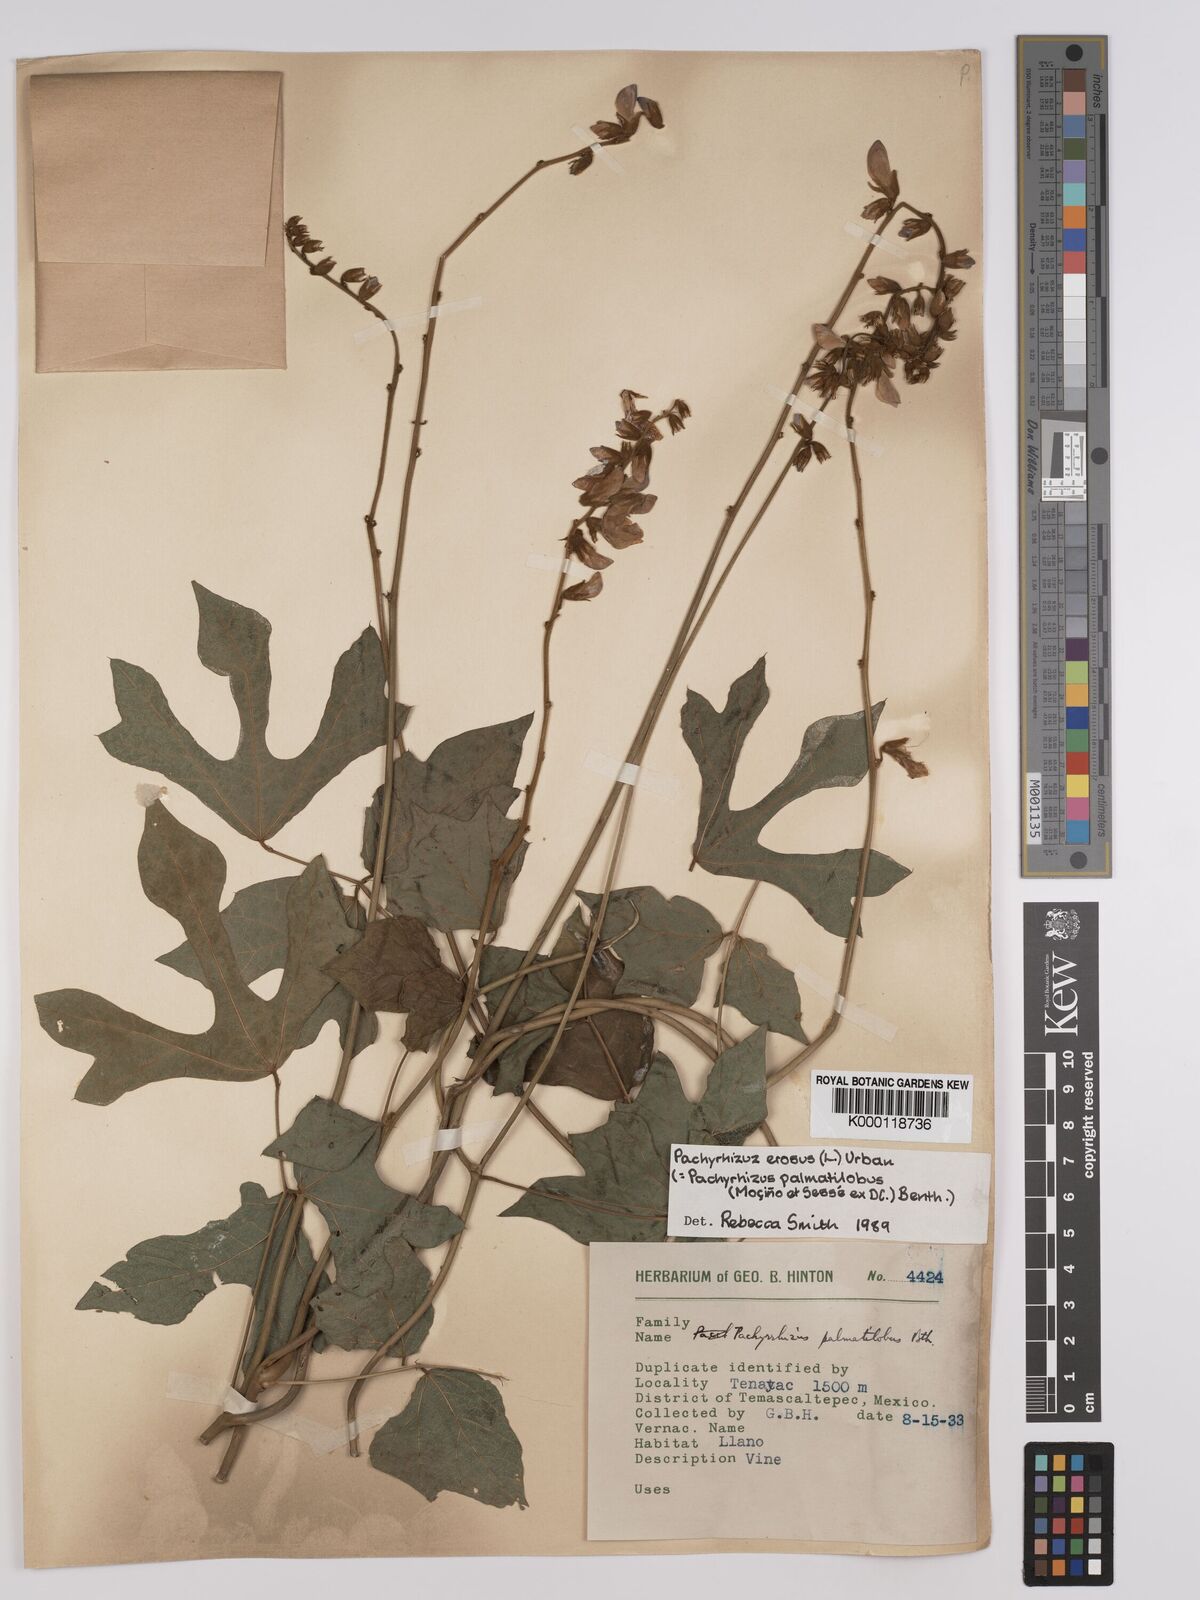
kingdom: Plantae
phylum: Tracheophyta
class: Magnoliopsida
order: Fabales
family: Fabaceae
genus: Pachyrhizus
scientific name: Pachyrhizus erosus
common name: Yam bean
